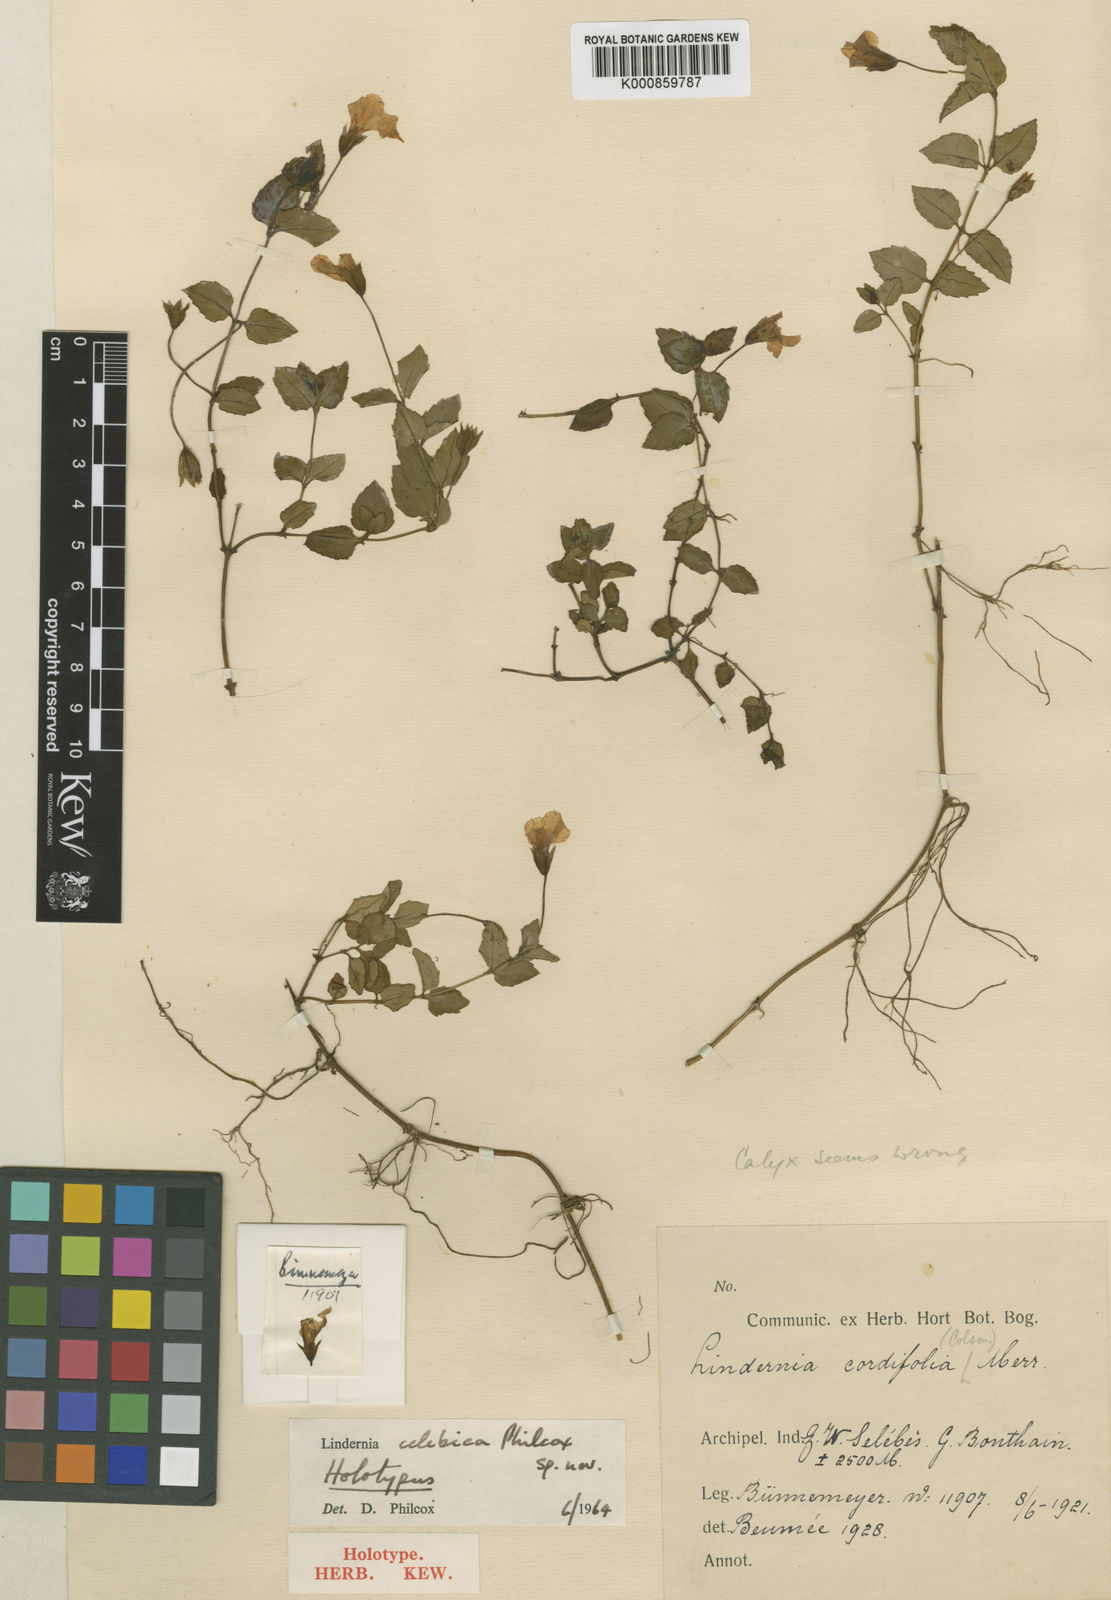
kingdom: Plantae
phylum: Tracheophyta
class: Magnoliopsida
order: Lamiales
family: Linderniaceae
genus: Bonnaya
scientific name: Bonnaya ciliata
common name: Hairy slitwort
